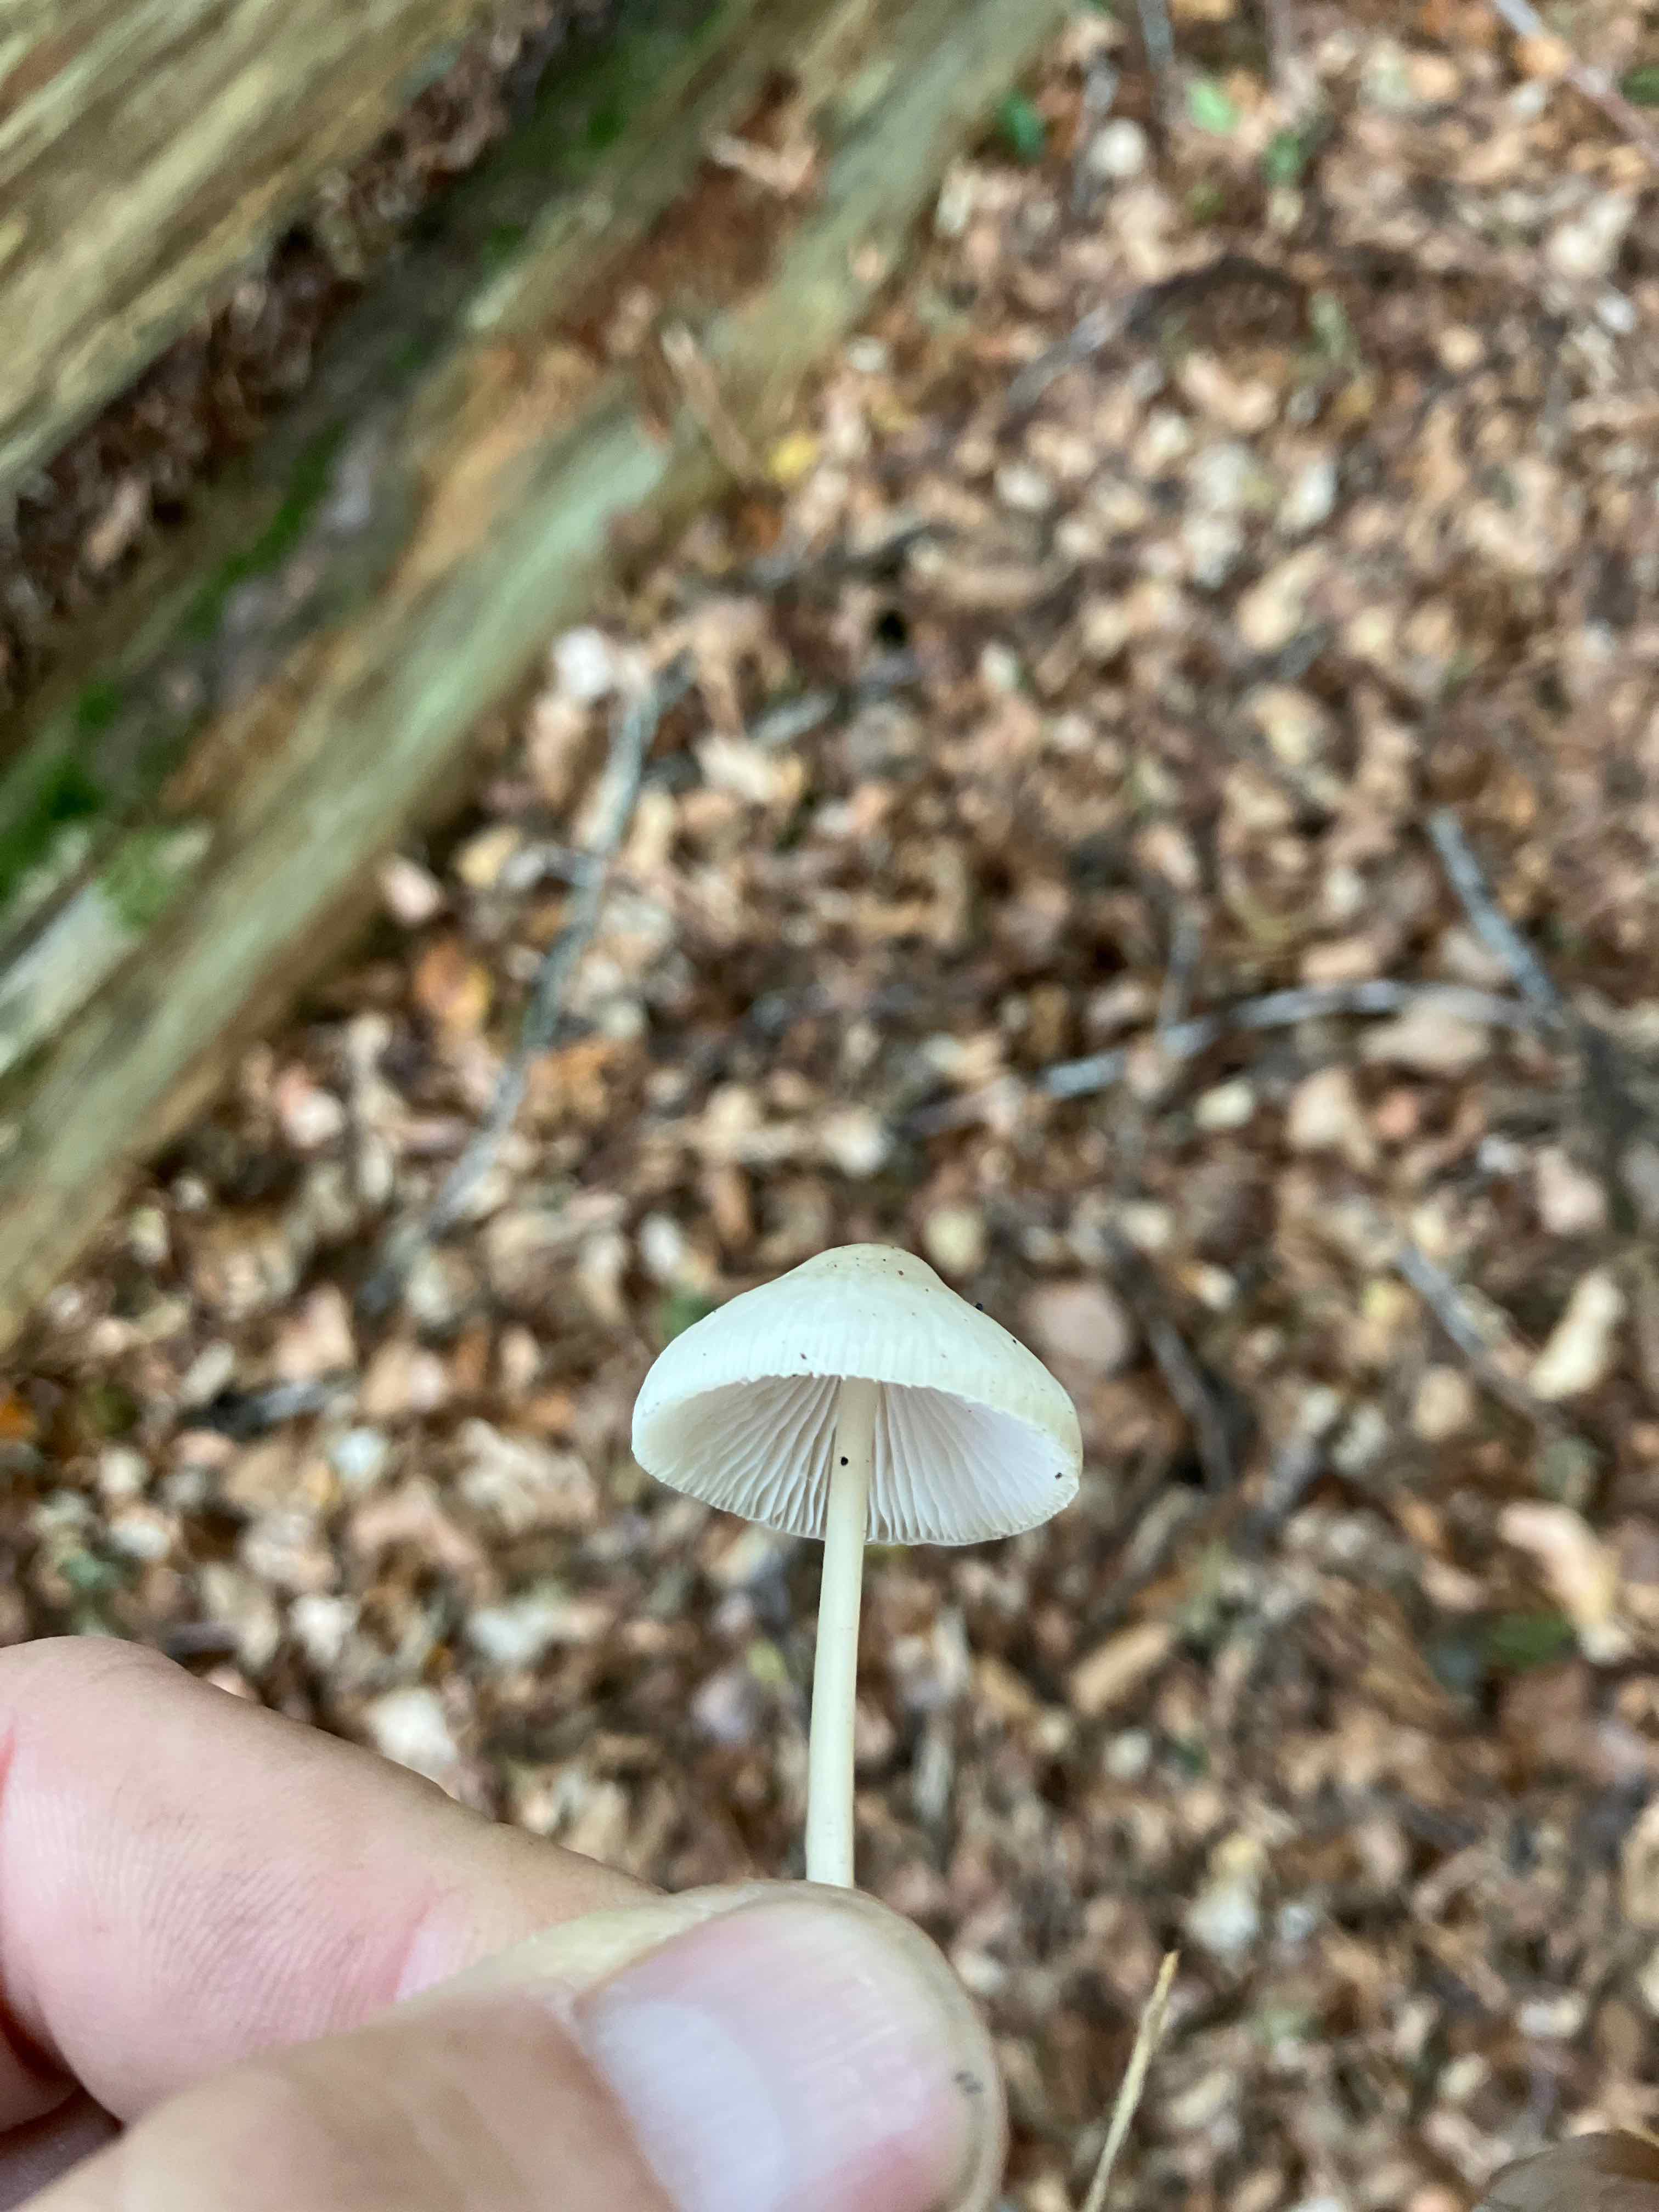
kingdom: Fungi
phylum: Basidiomycota
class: Agaricomycetes
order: Agaricales
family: Mycenaceae
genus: Mycena
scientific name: Mycena
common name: huesvamp
